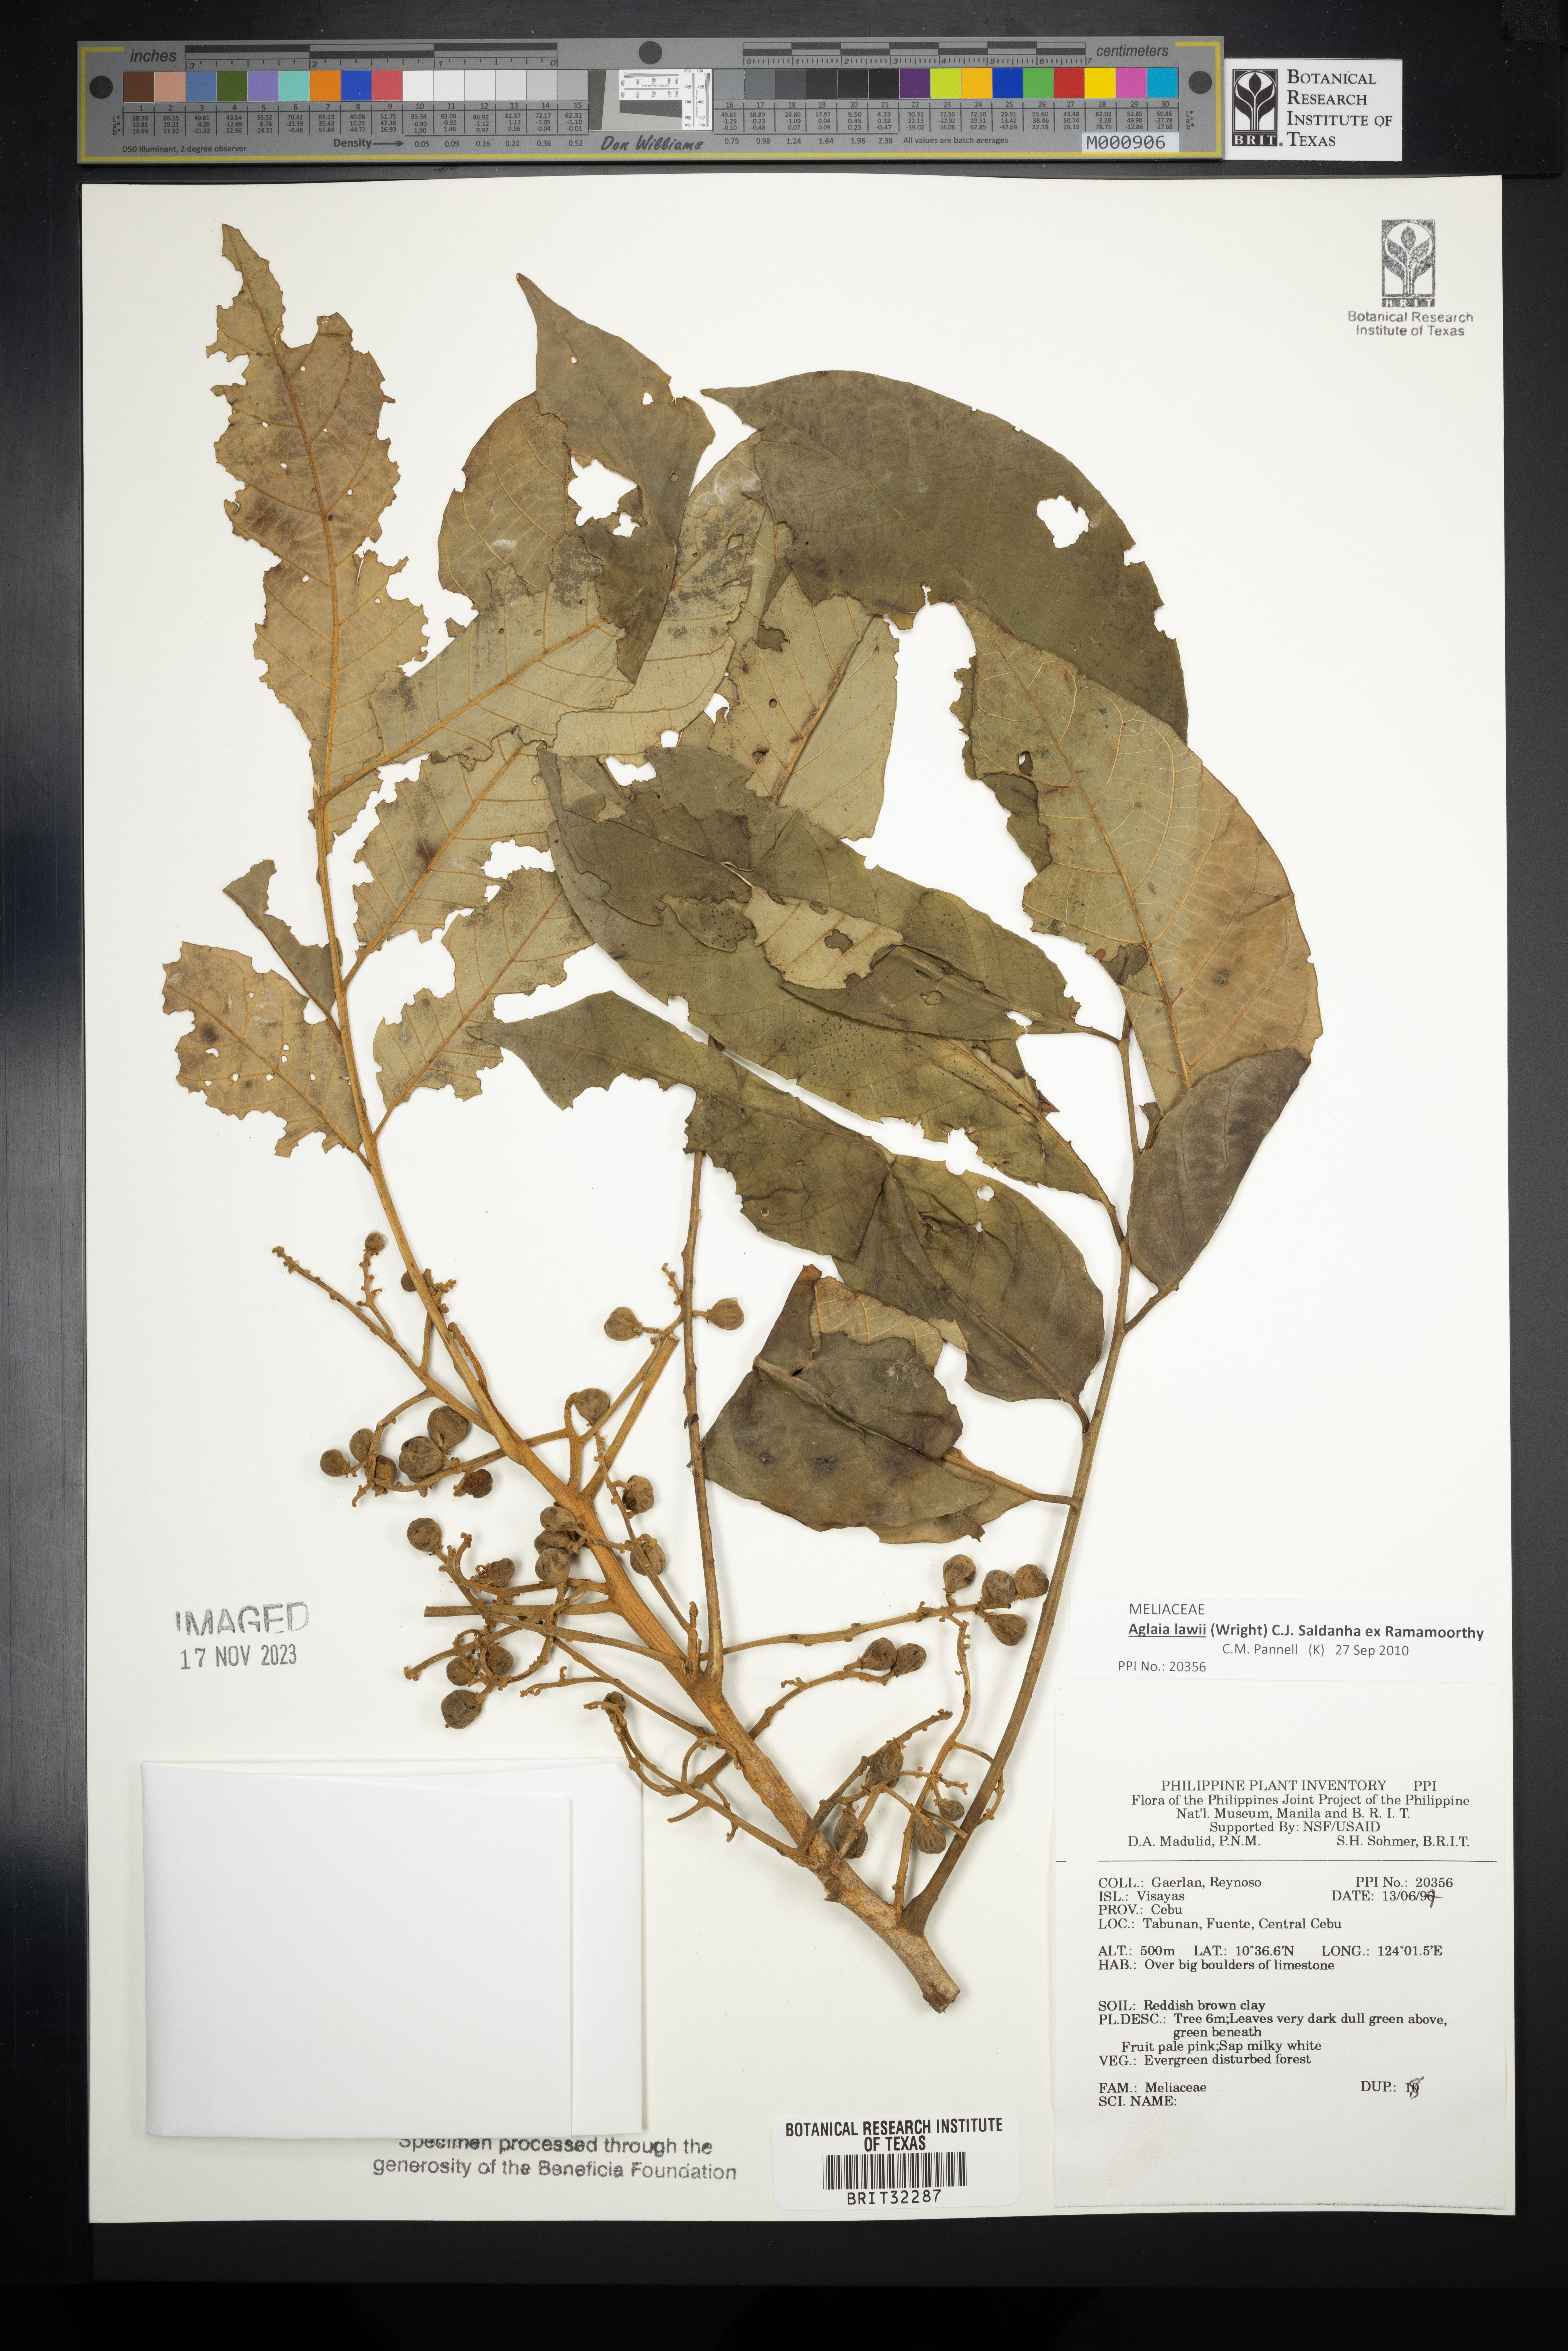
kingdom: Plantae
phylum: Tracheophyta
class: Magnoliopsida
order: Sapindales
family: Meliaceae
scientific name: Meliaceae
